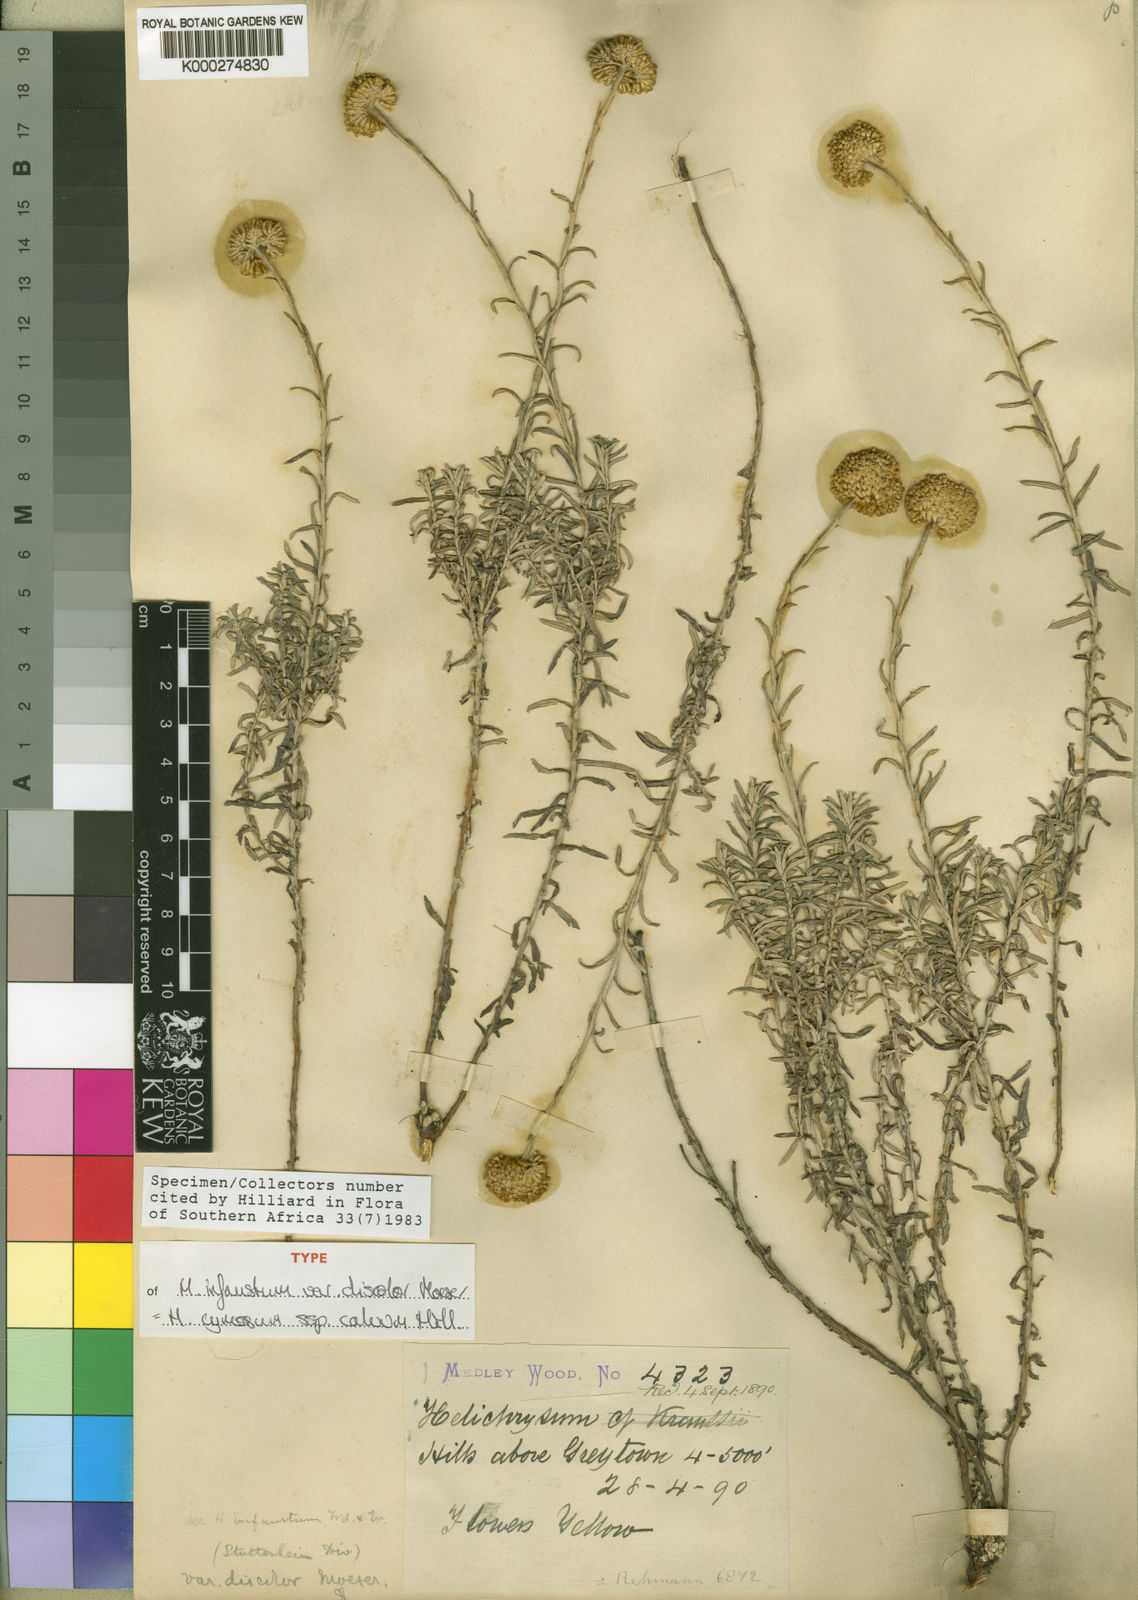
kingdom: Plantae
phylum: Tracheophyta
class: Magnoliopsida
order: Asterales
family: Asteraceae
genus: Helichrysum
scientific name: Helichrysum cymosum
